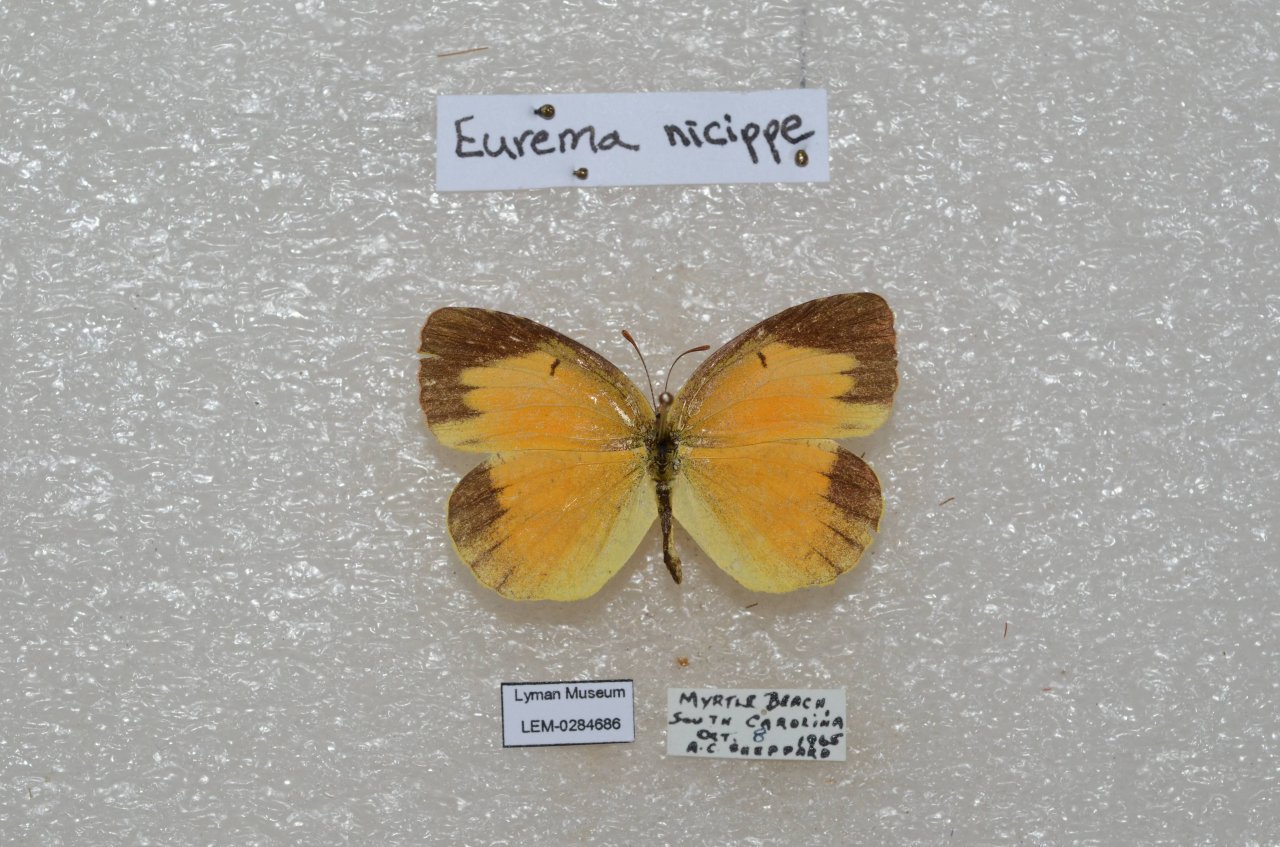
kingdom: Animalia
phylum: Arthropoda
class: Insecta
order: Lepidoptera
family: Pieridae
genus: Abaeis
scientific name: Abaeis nicippe
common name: Sleepy Orange
